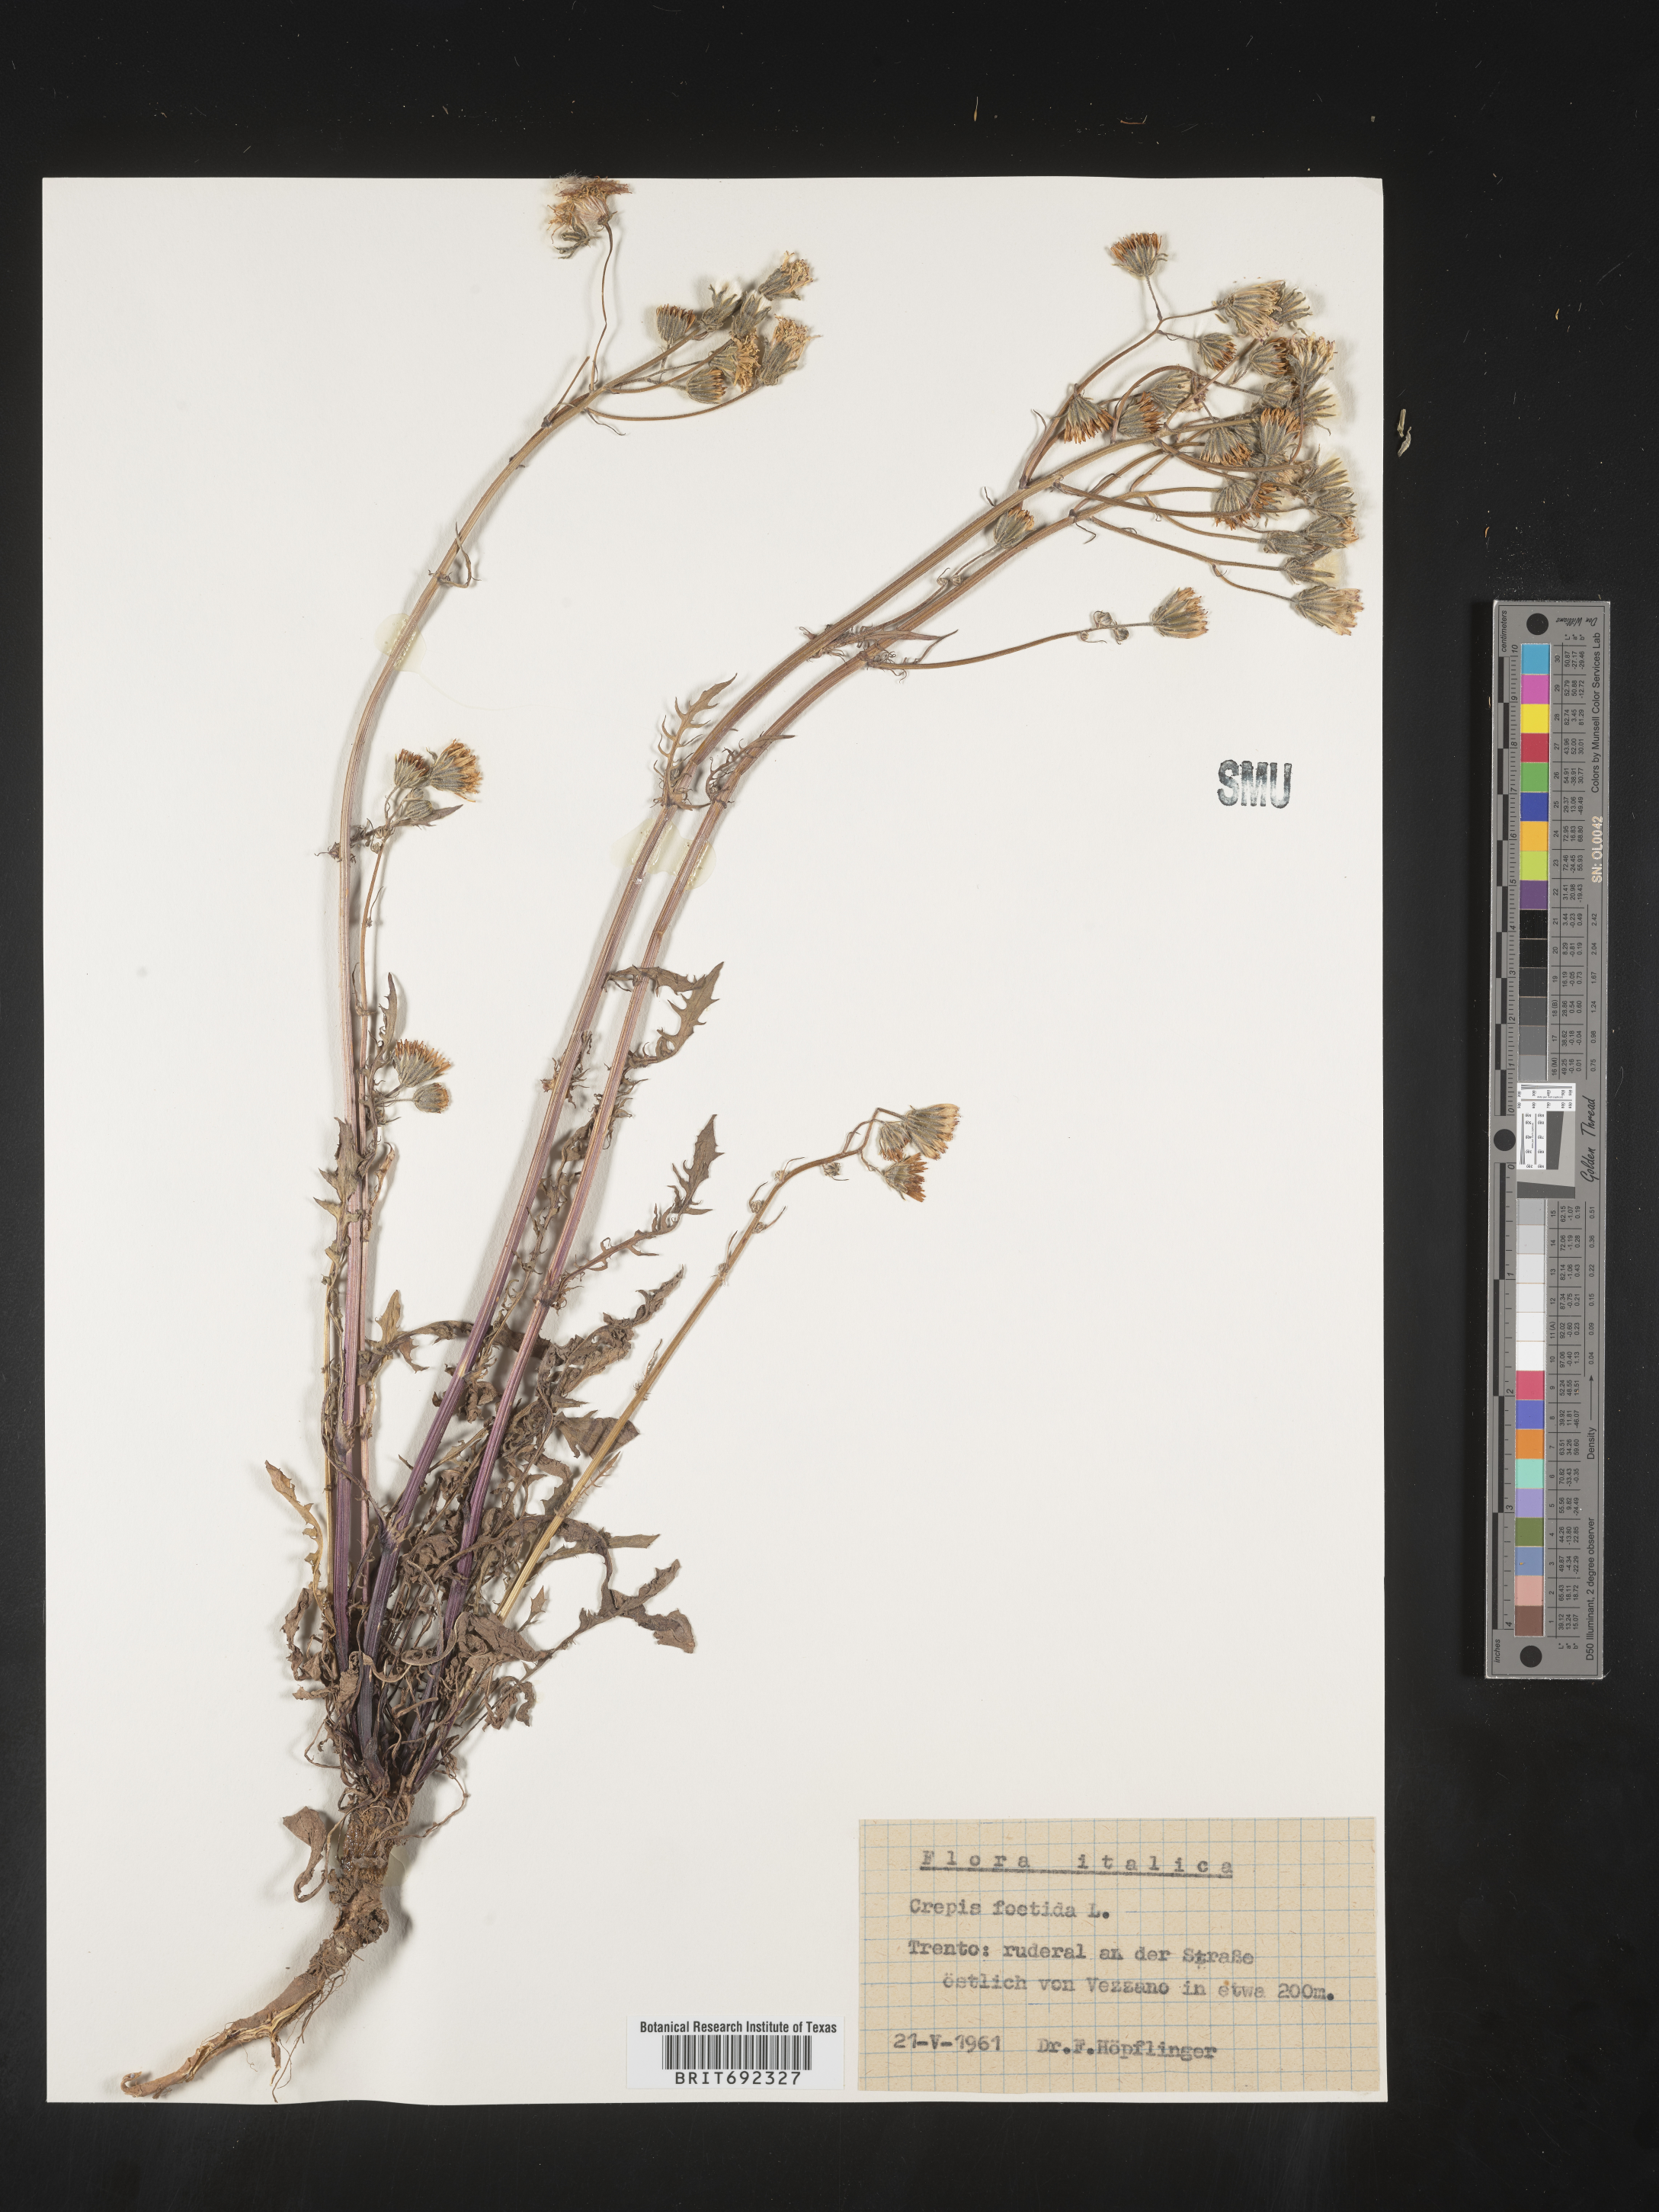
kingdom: Plantae
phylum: Tracheophyta
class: Magnoliopsida
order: Asterales
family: Asteraceae
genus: Crepis
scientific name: Crepis
